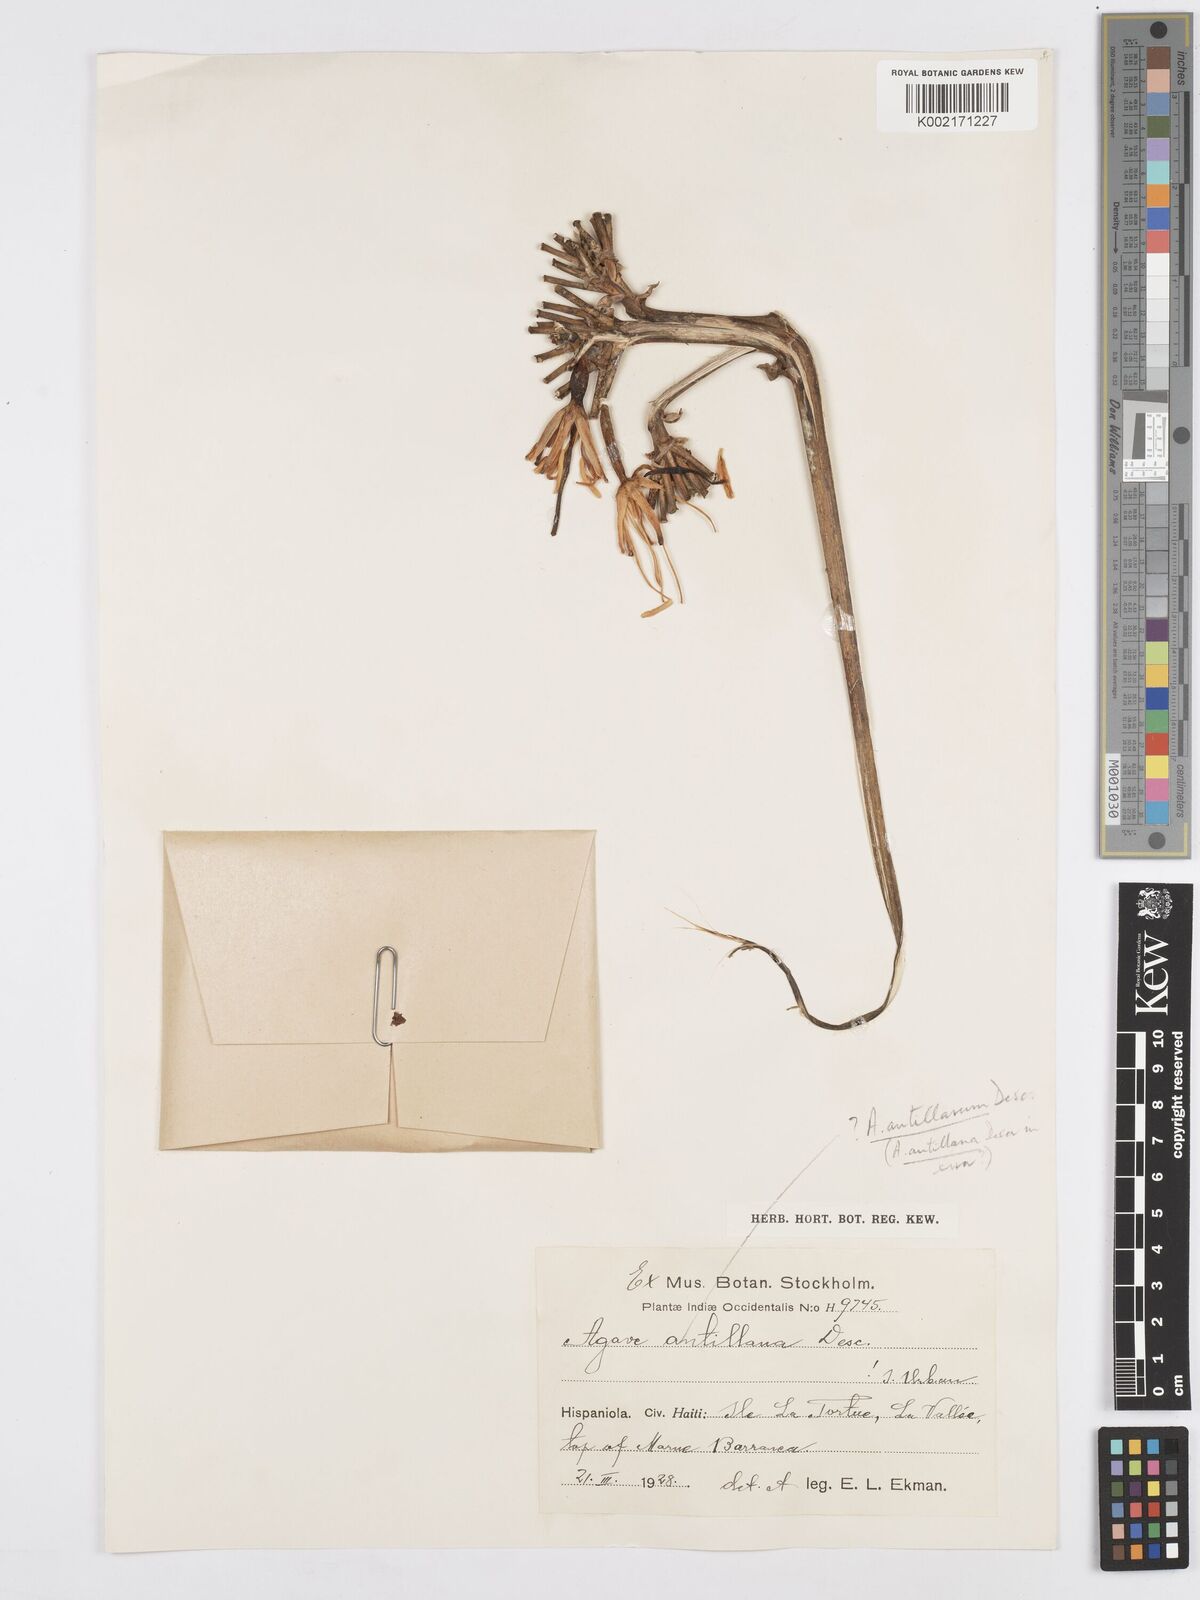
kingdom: Plantae
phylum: Tracheophyta
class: Liliopsida
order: Asparagales
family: Asparagaceae
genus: Agave
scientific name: Agave sobolifera
